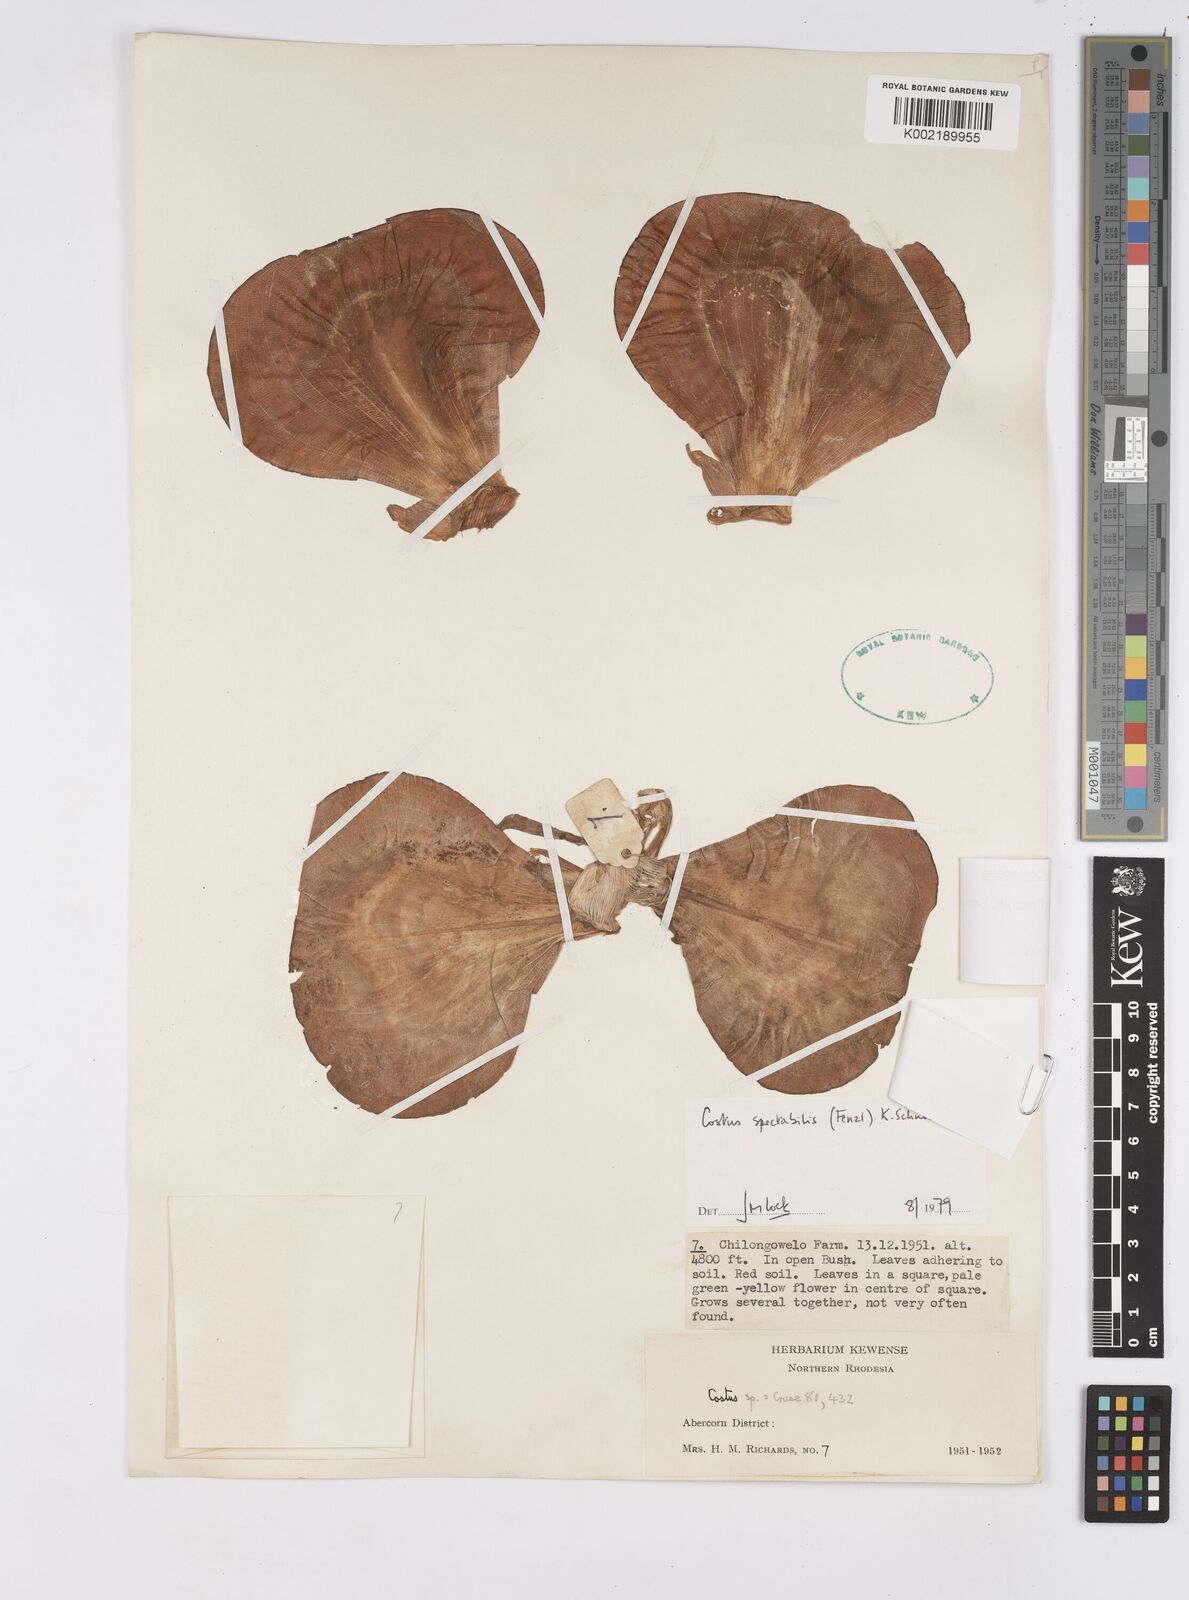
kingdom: Plantae
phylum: Tracheophyta
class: Liliopsida
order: Zingiberales
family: Costaceae
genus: Costus
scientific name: Costus spectabilis
